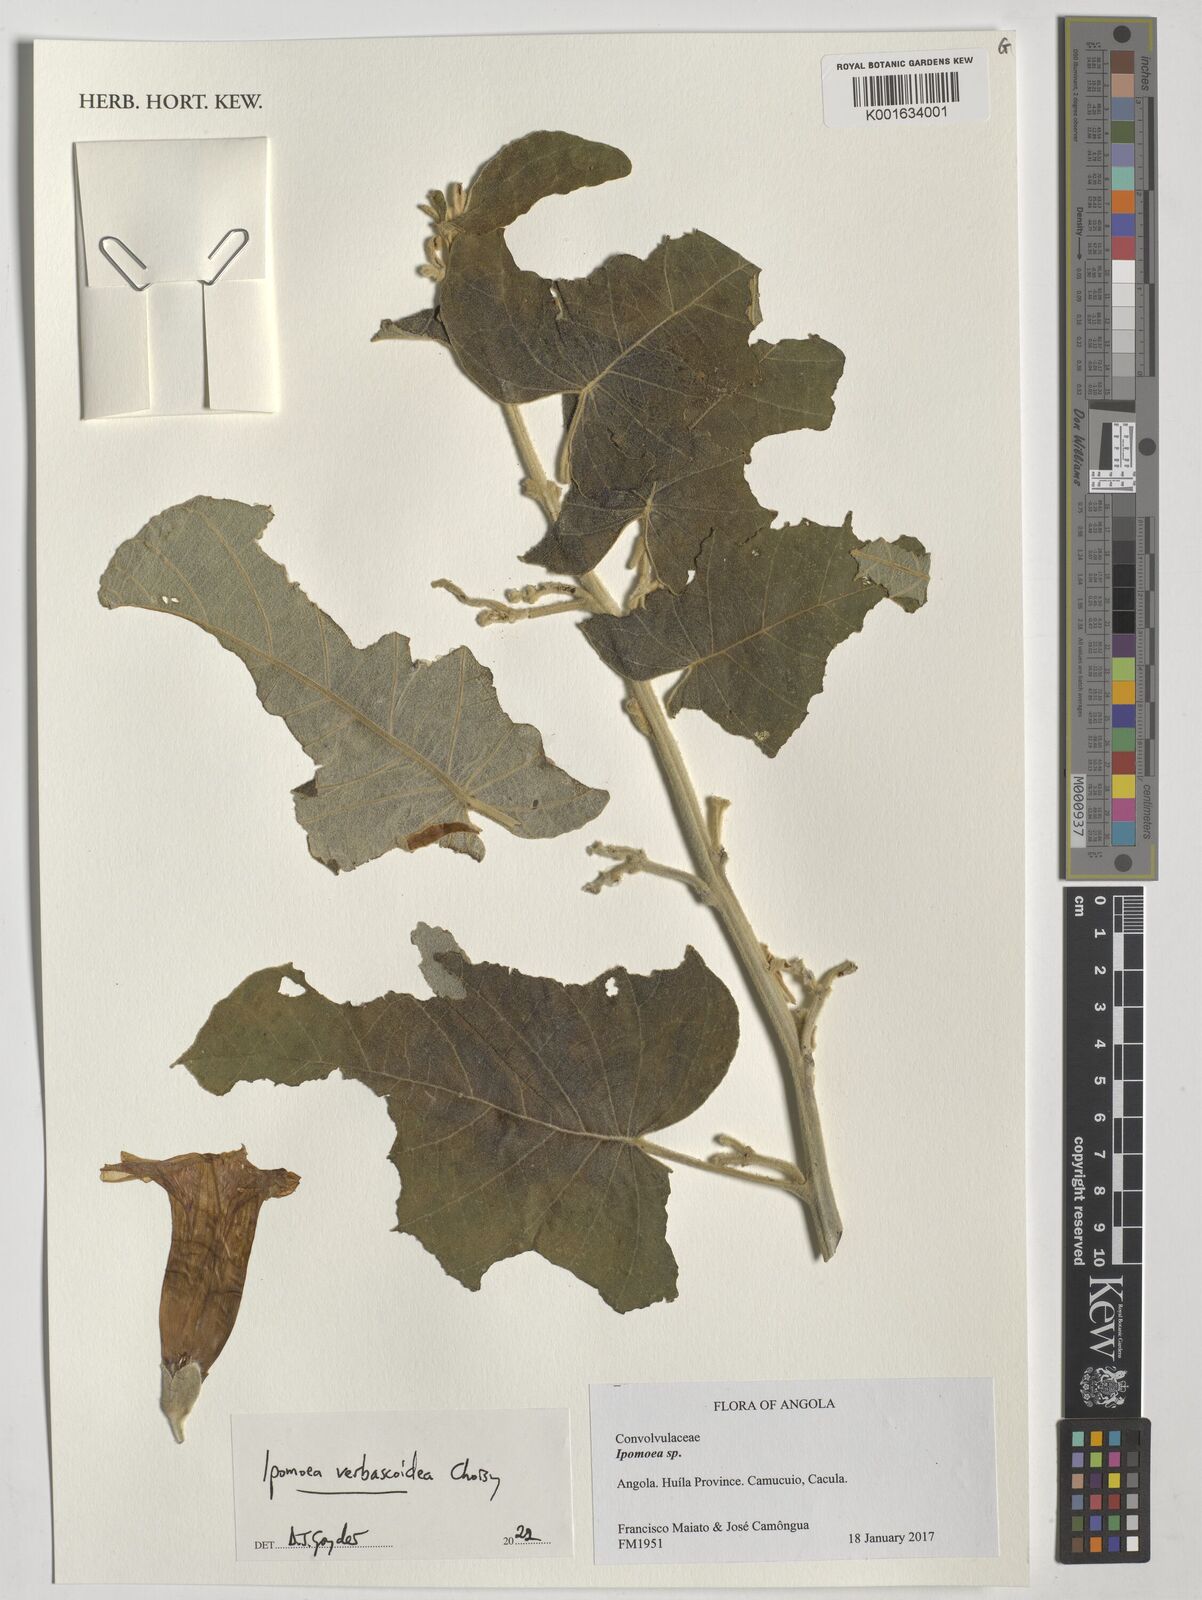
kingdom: Plantae
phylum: Tracheophyta
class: Magnoliopsida
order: Solanales
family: Convolvulaceae
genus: Ipomoea
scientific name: Ipomoea verbascoidea
